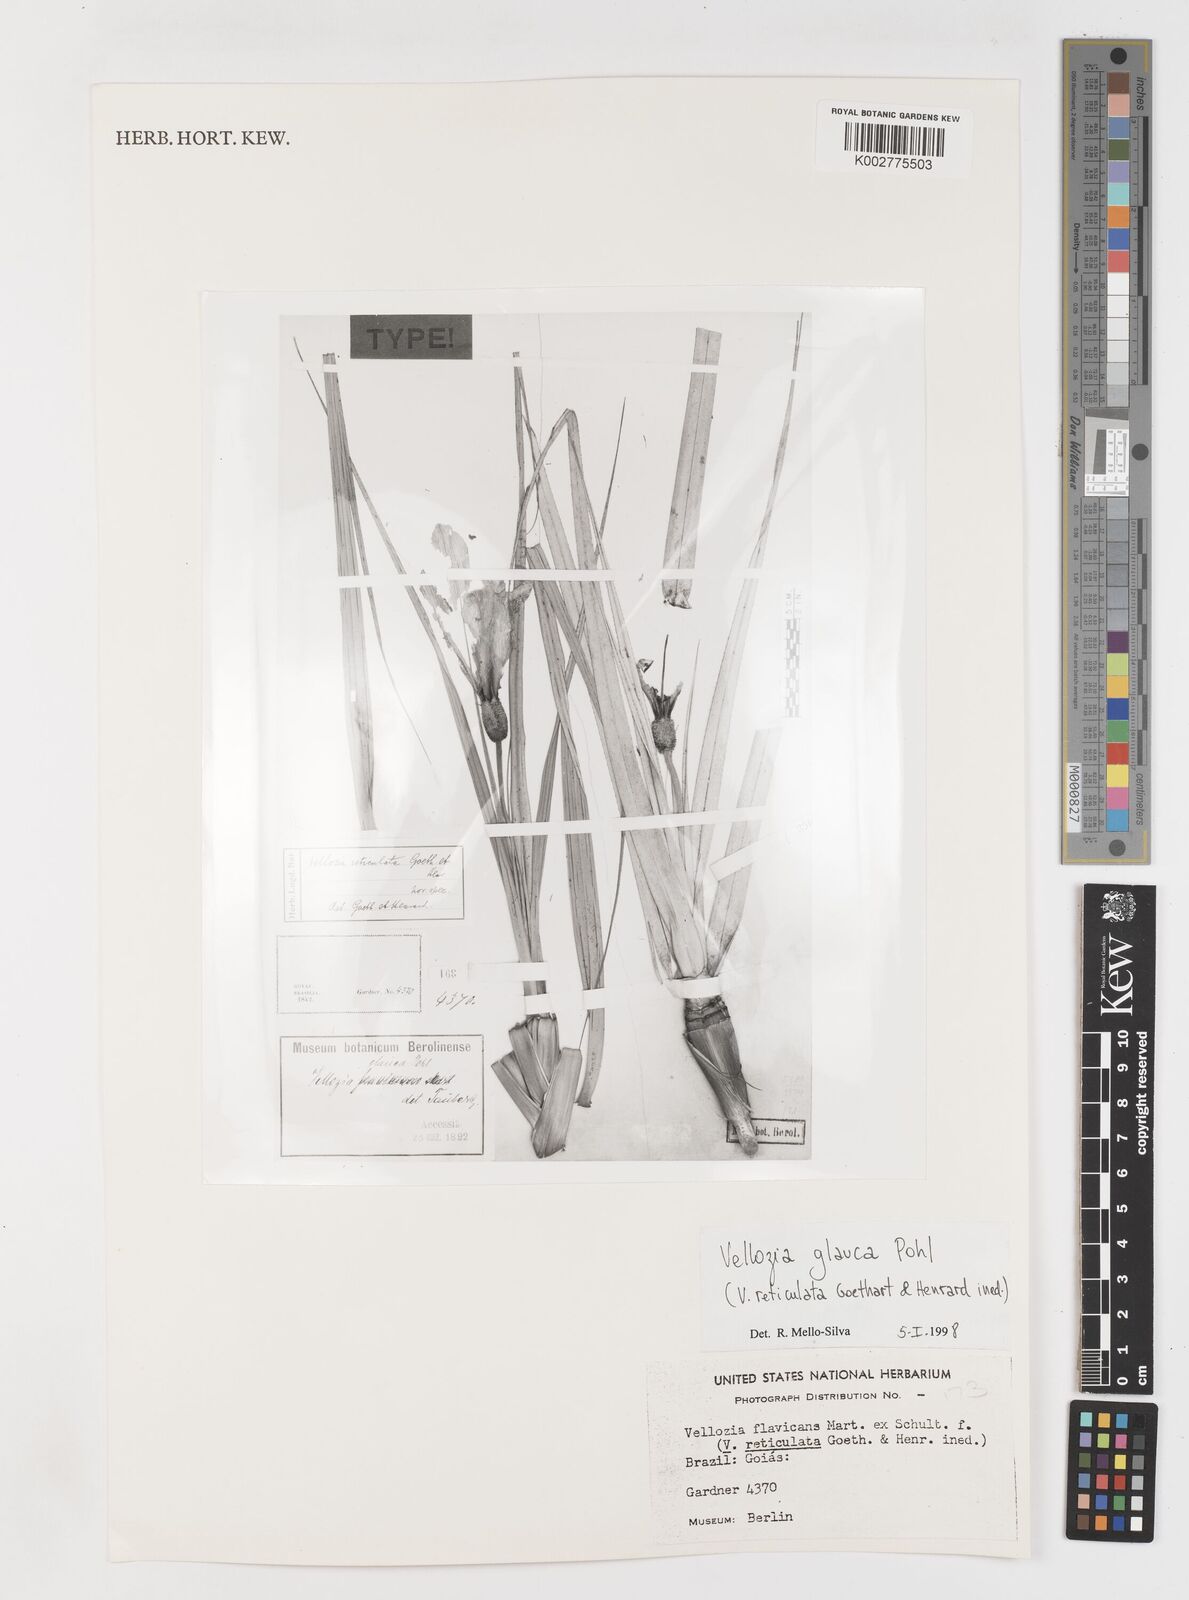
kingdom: Plantae
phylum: Tracheophyta
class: Liliopsida
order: Pandanales
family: Velloziaceae
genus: Vellozia
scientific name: Vellozia glauca
